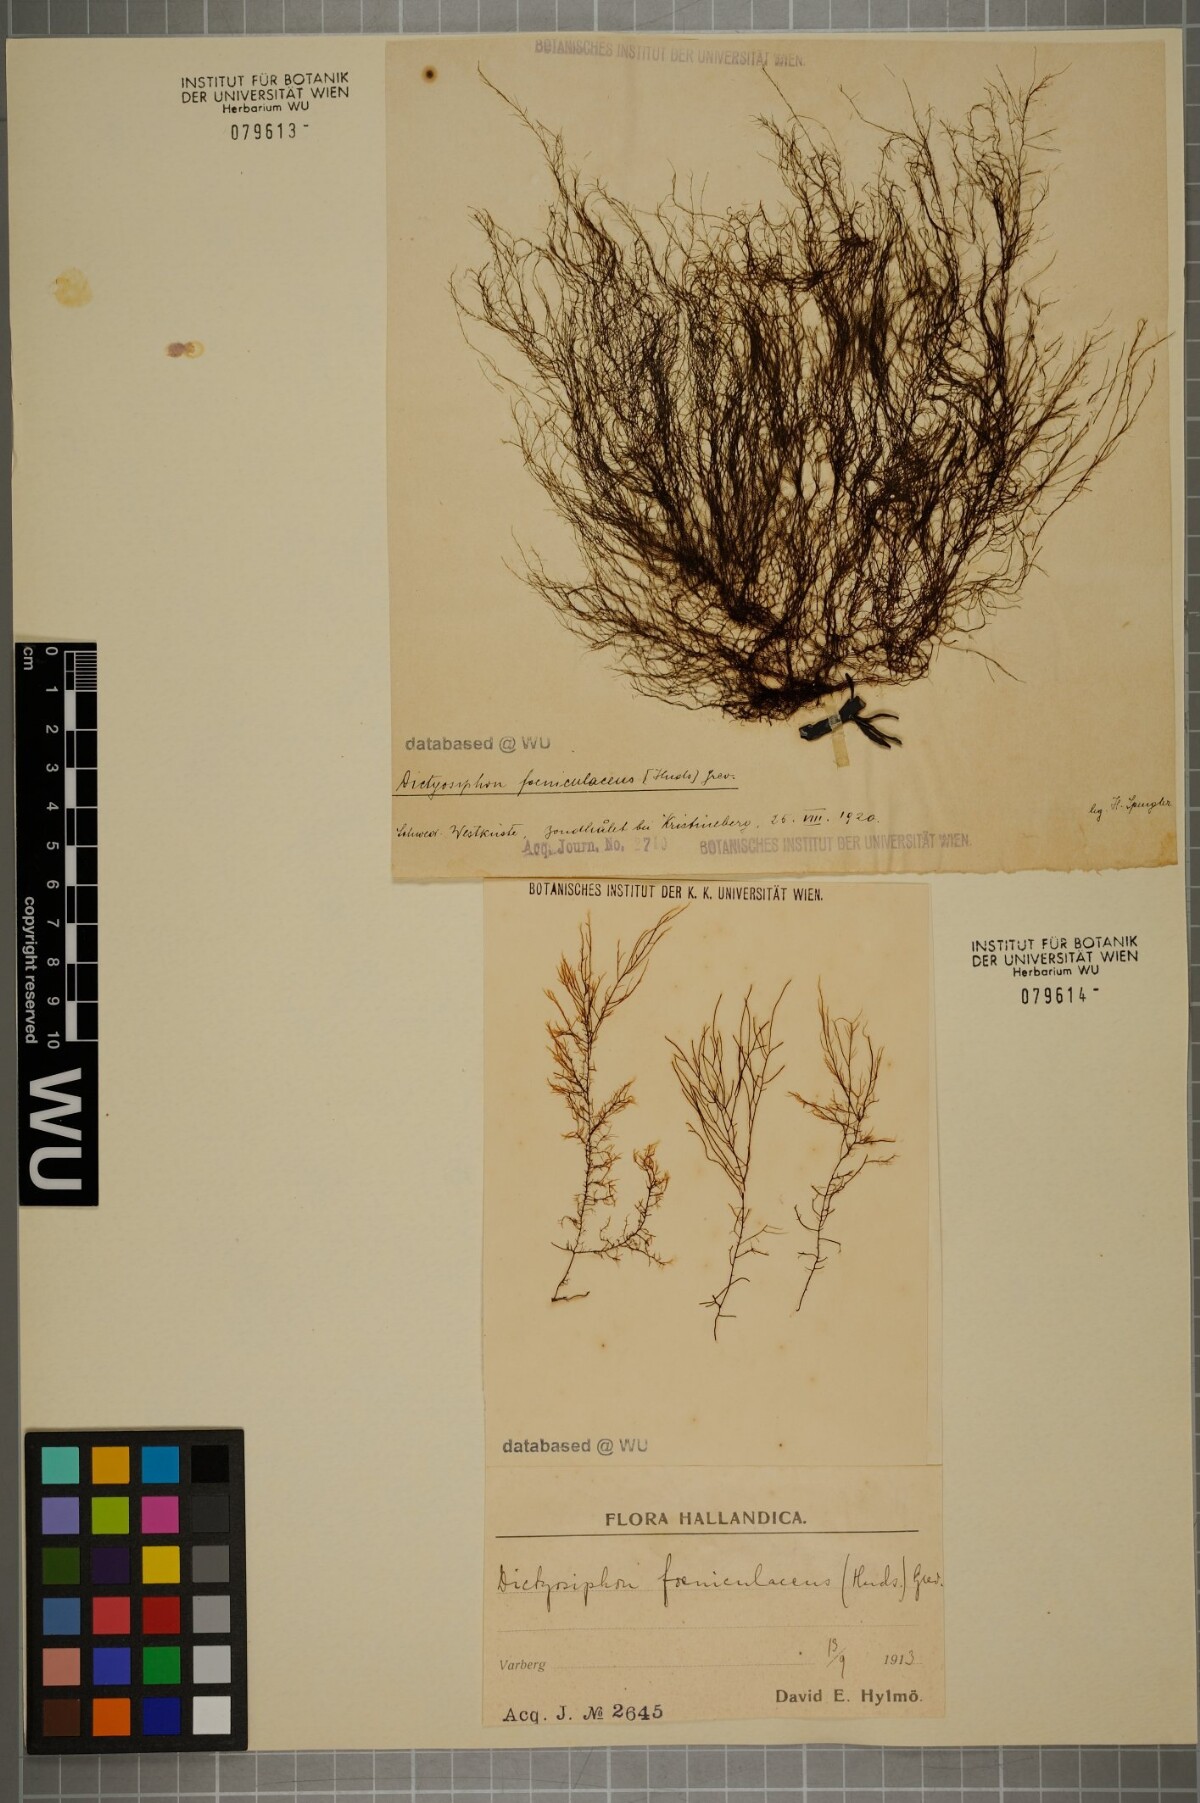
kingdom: Chromista
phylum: Ochrophyta
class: Phaeophyceae
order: Ectocarpales
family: Chordariaceae
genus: Dictyosiphon
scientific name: Dictyosiphon foeniculaceus
